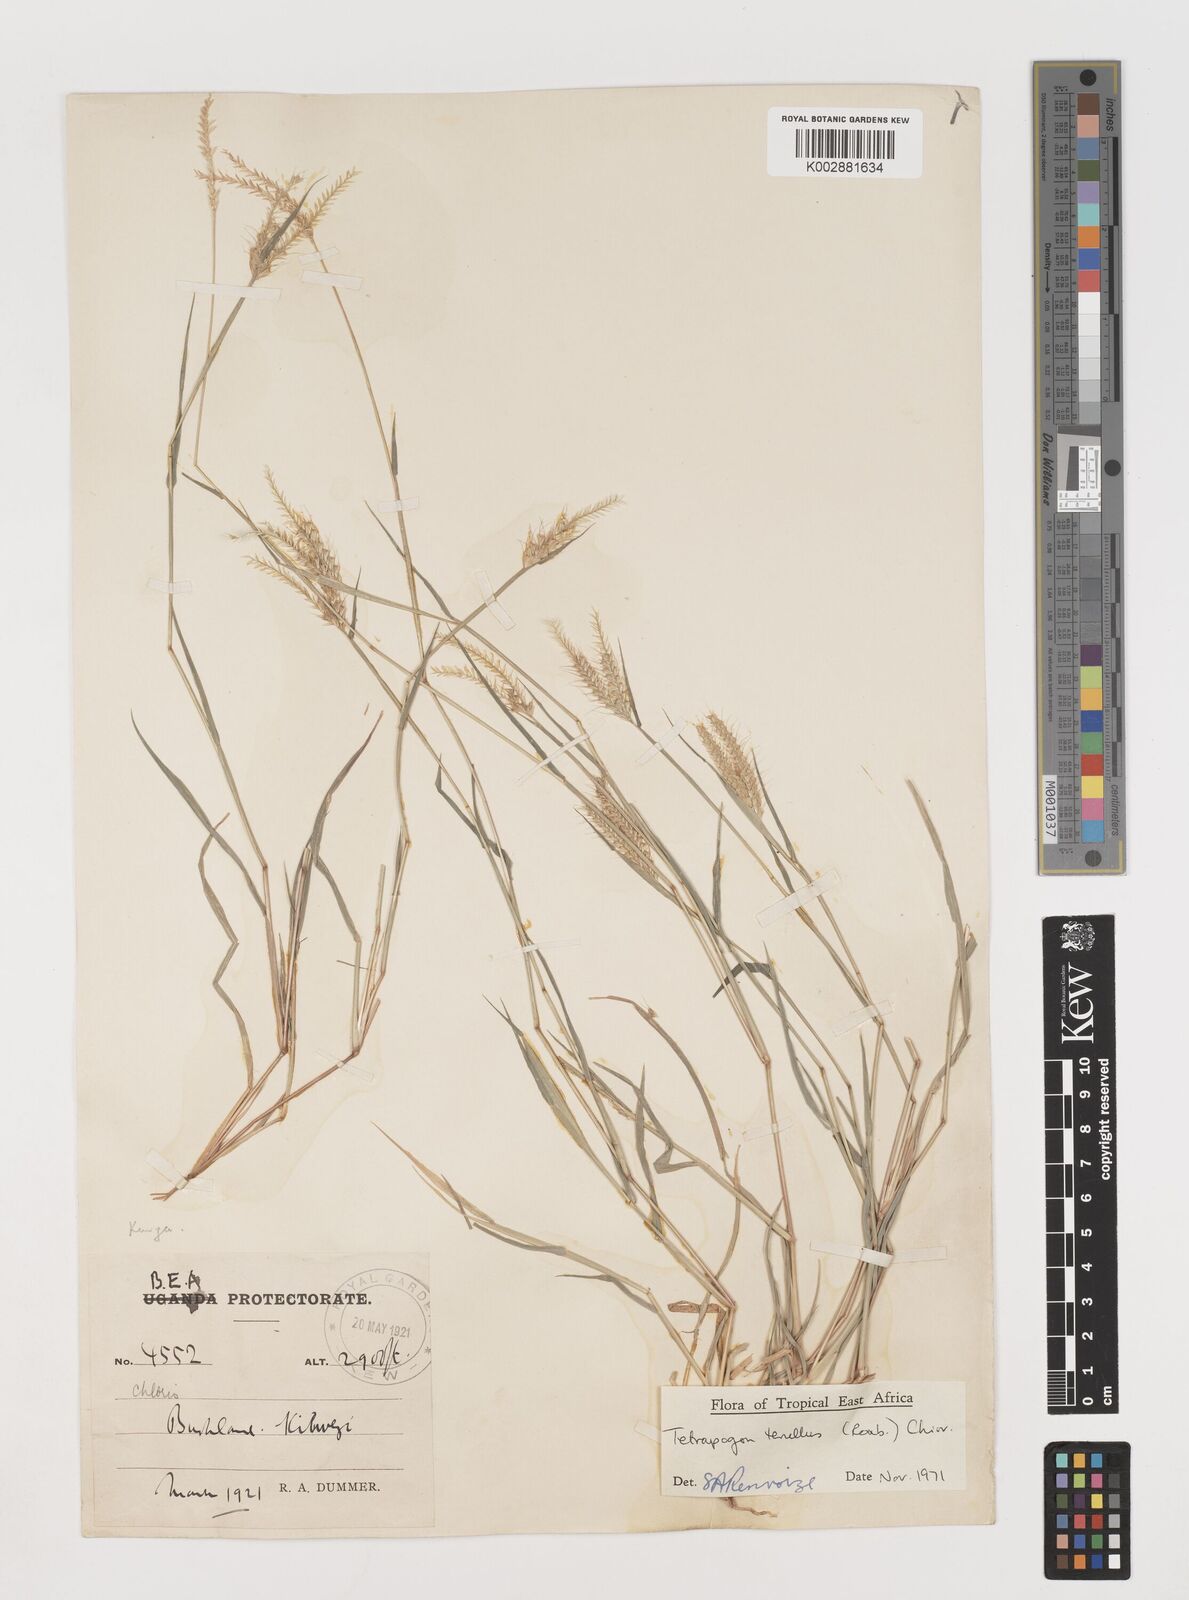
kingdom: Plantae
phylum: Tracheophyta
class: Liliopsida
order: Poales
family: Poaceae
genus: Tetrapogon
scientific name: Tetrapogon tenellus
